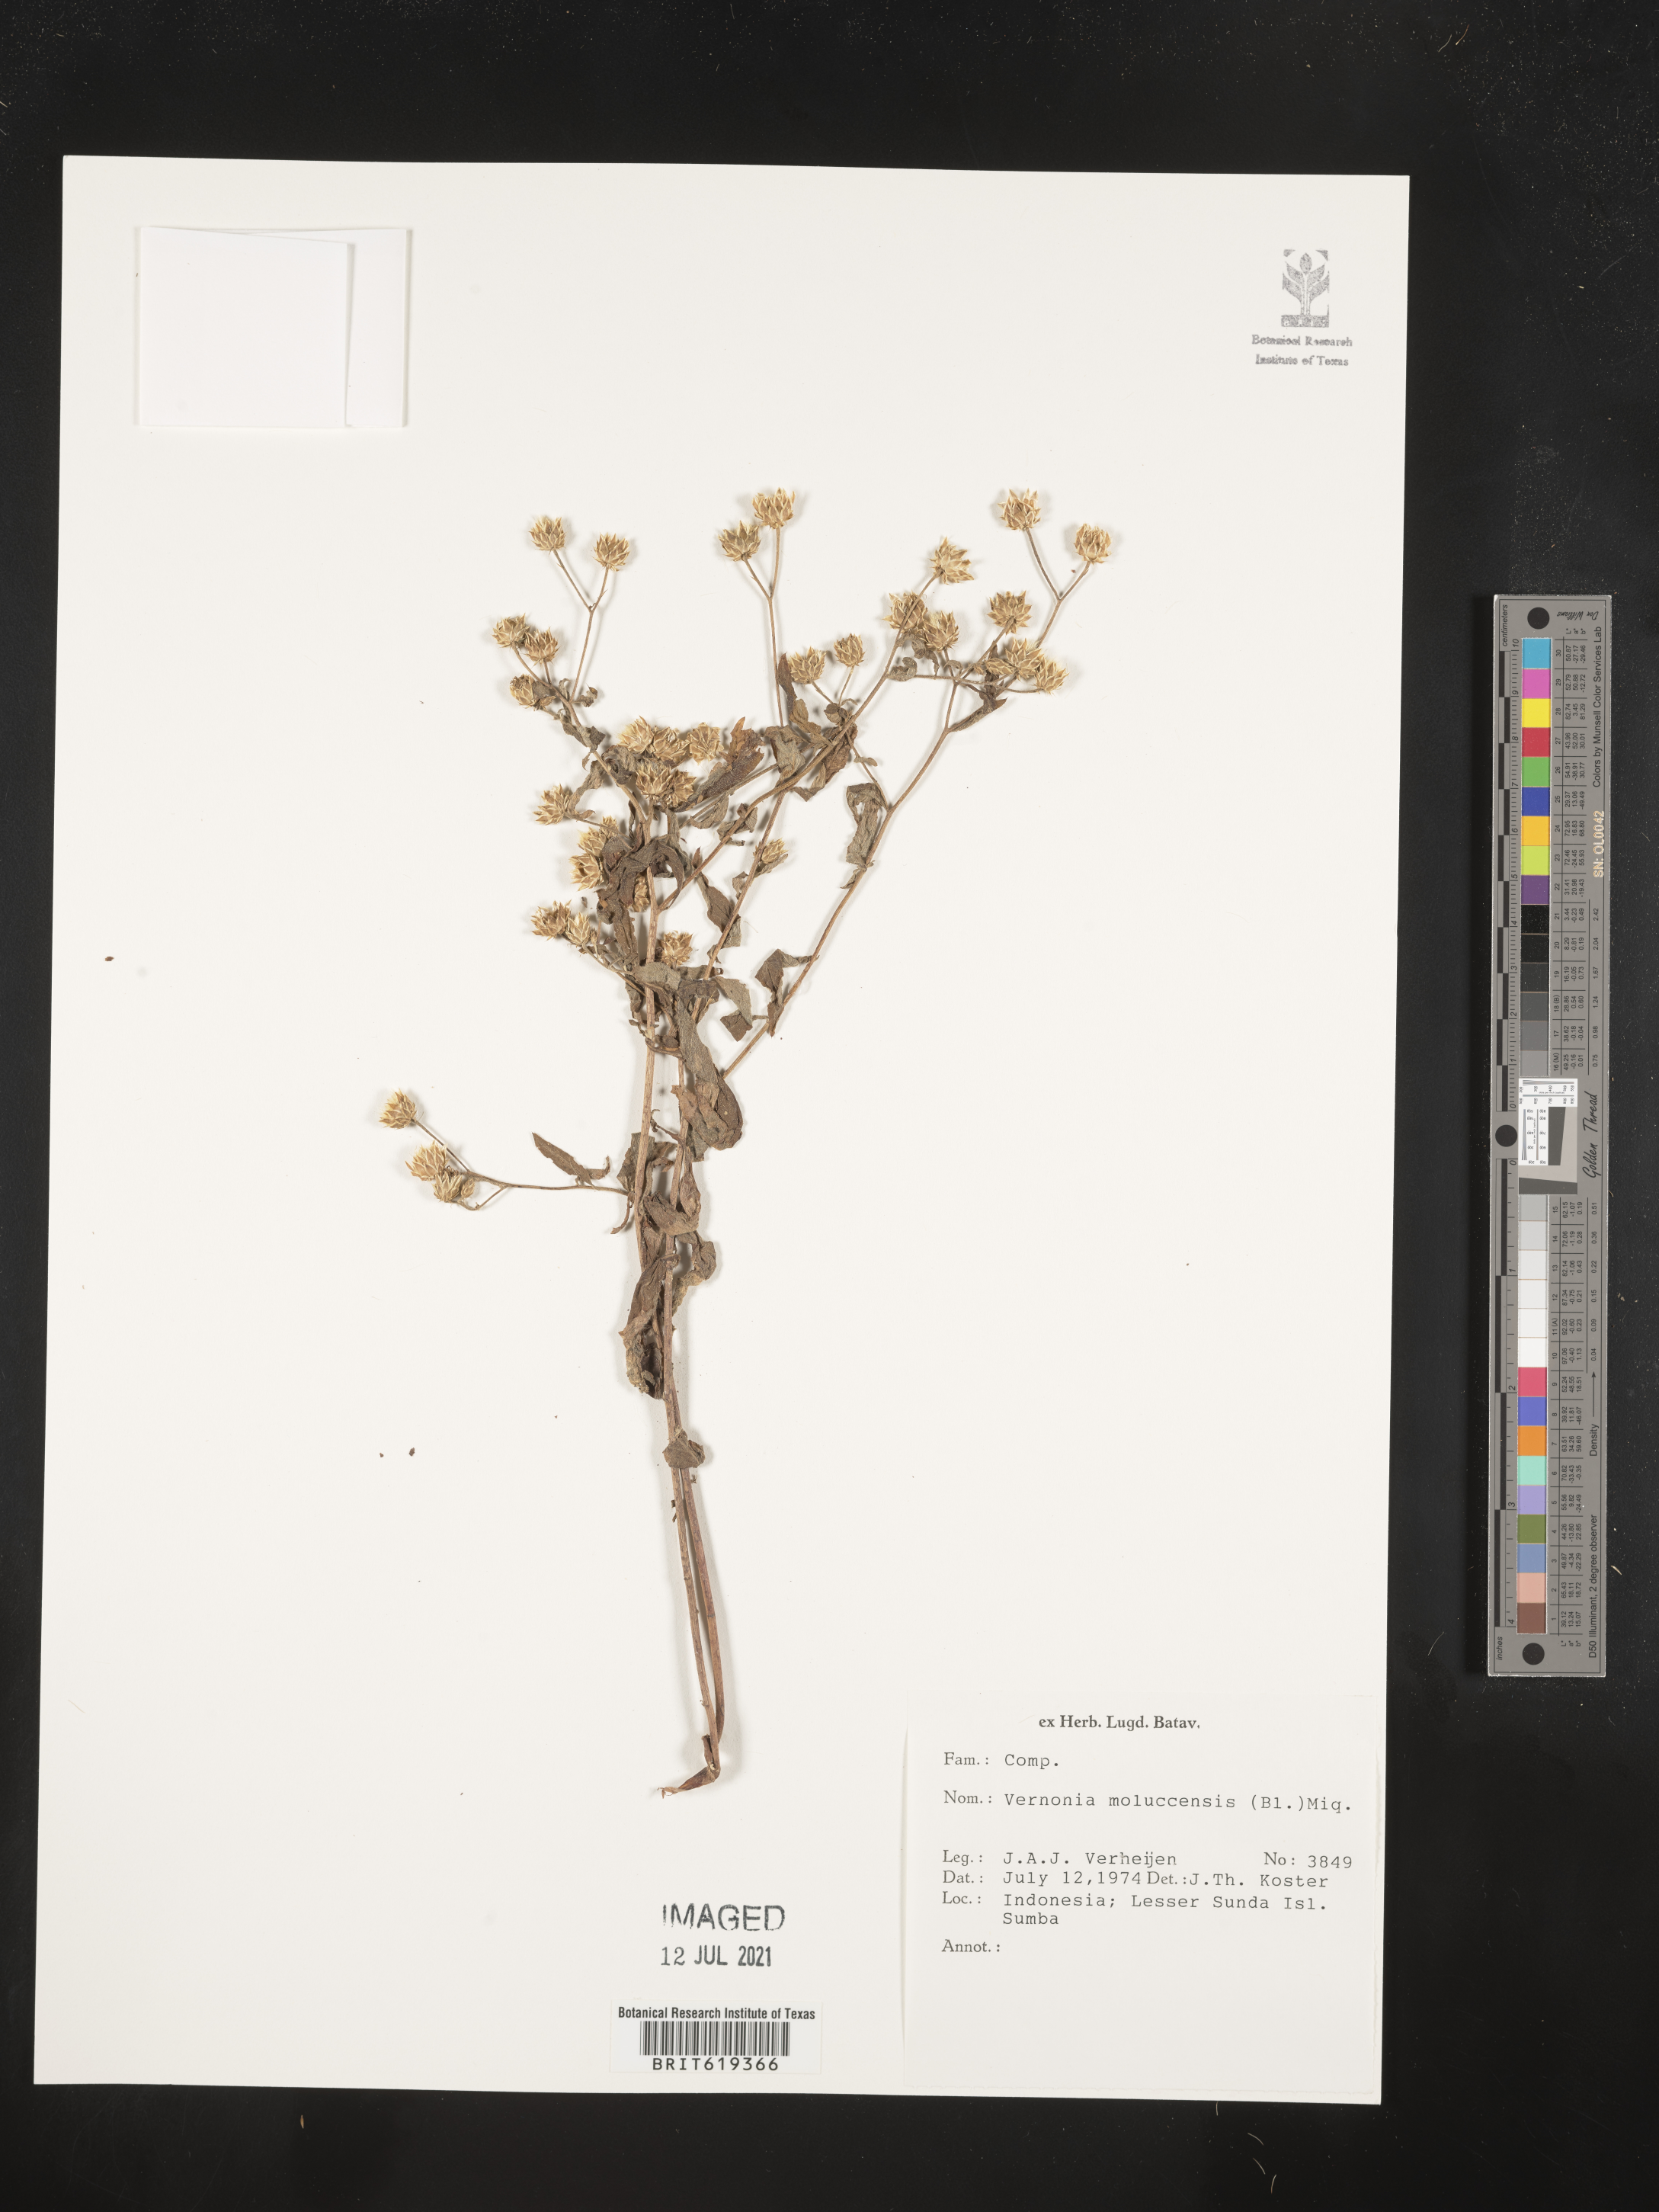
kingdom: Plantae
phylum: Tracheophyta
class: Magnoliopsida
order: Asterales
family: Asteraceae
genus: Vernonia
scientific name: Vernonia moluccensis
